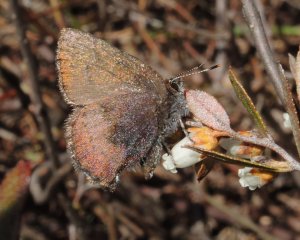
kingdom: Animalia
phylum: Arthropoda
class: Insecta
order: Lepidoptera
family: Lycaenidae
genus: Incisalia
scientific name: Incisalia irioides
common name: Brown Elfin
